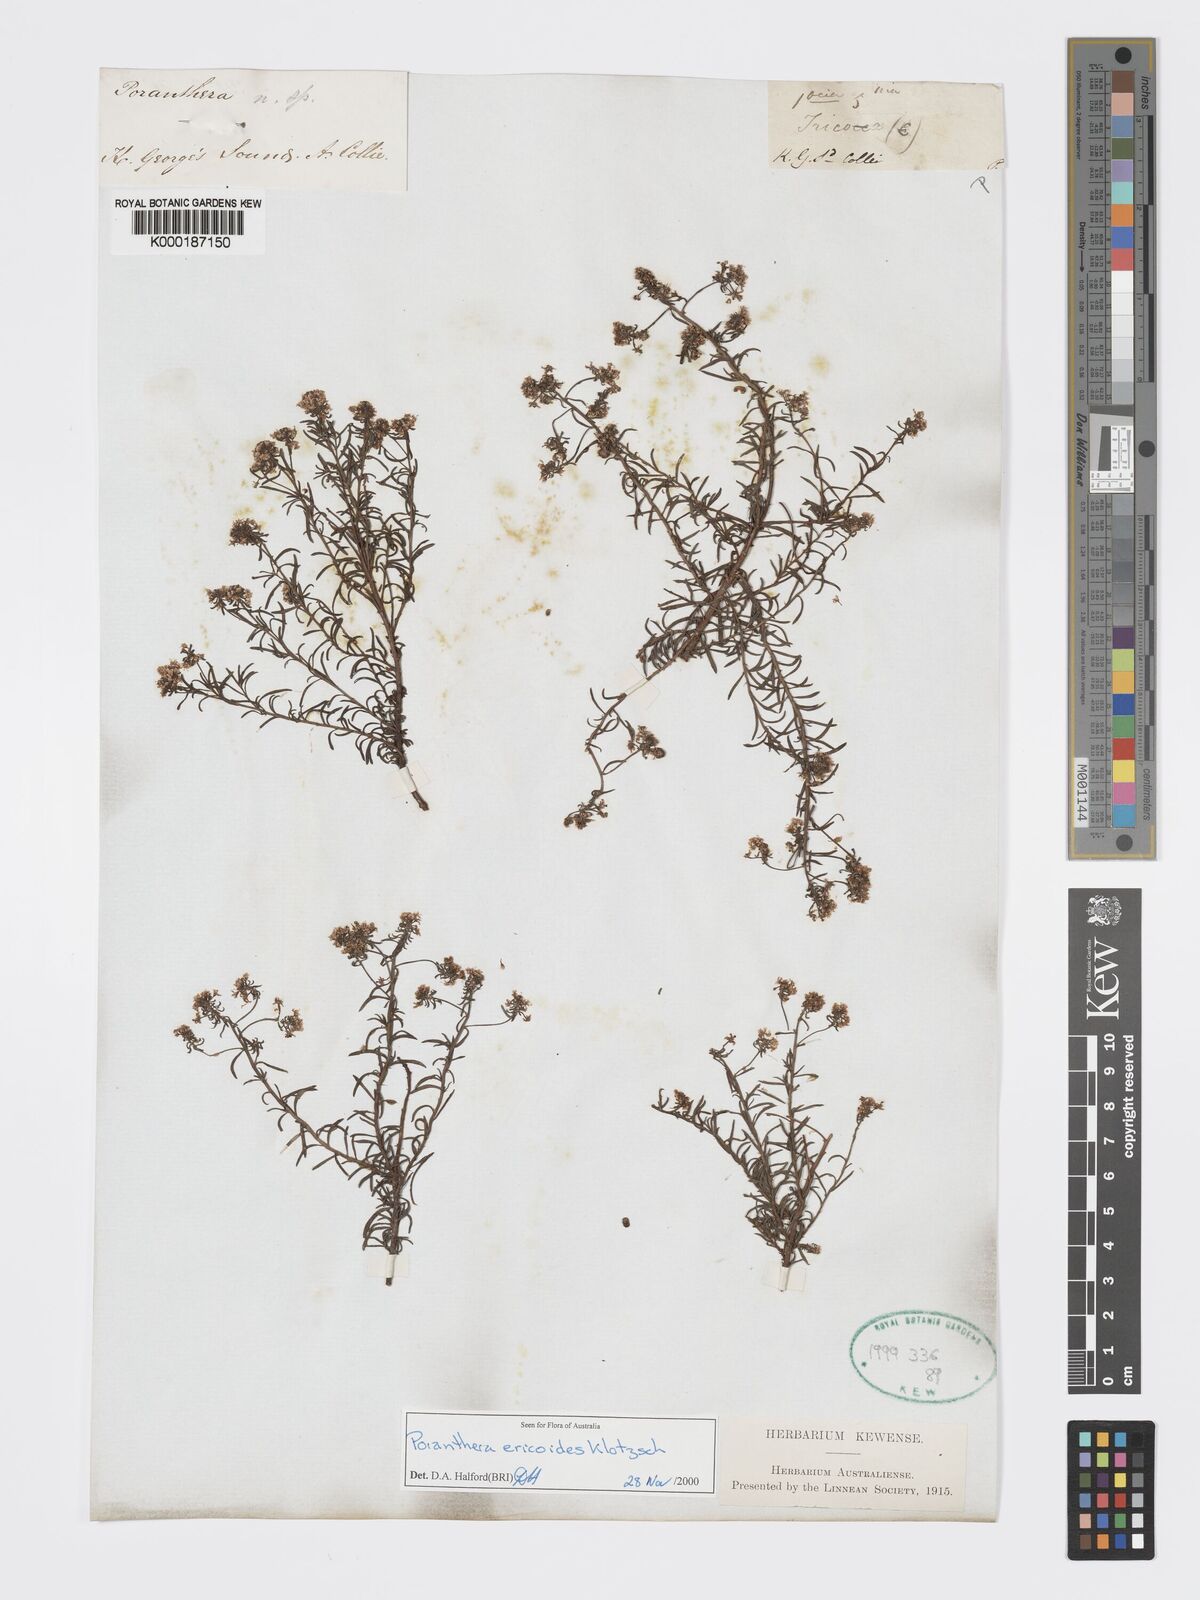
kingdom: Plantae
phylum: Tracheophyta
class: Magnoliopsida
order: Malpighiales
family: Phyllanthaceae
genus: Poranthera
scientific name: Poranthera ericoides
